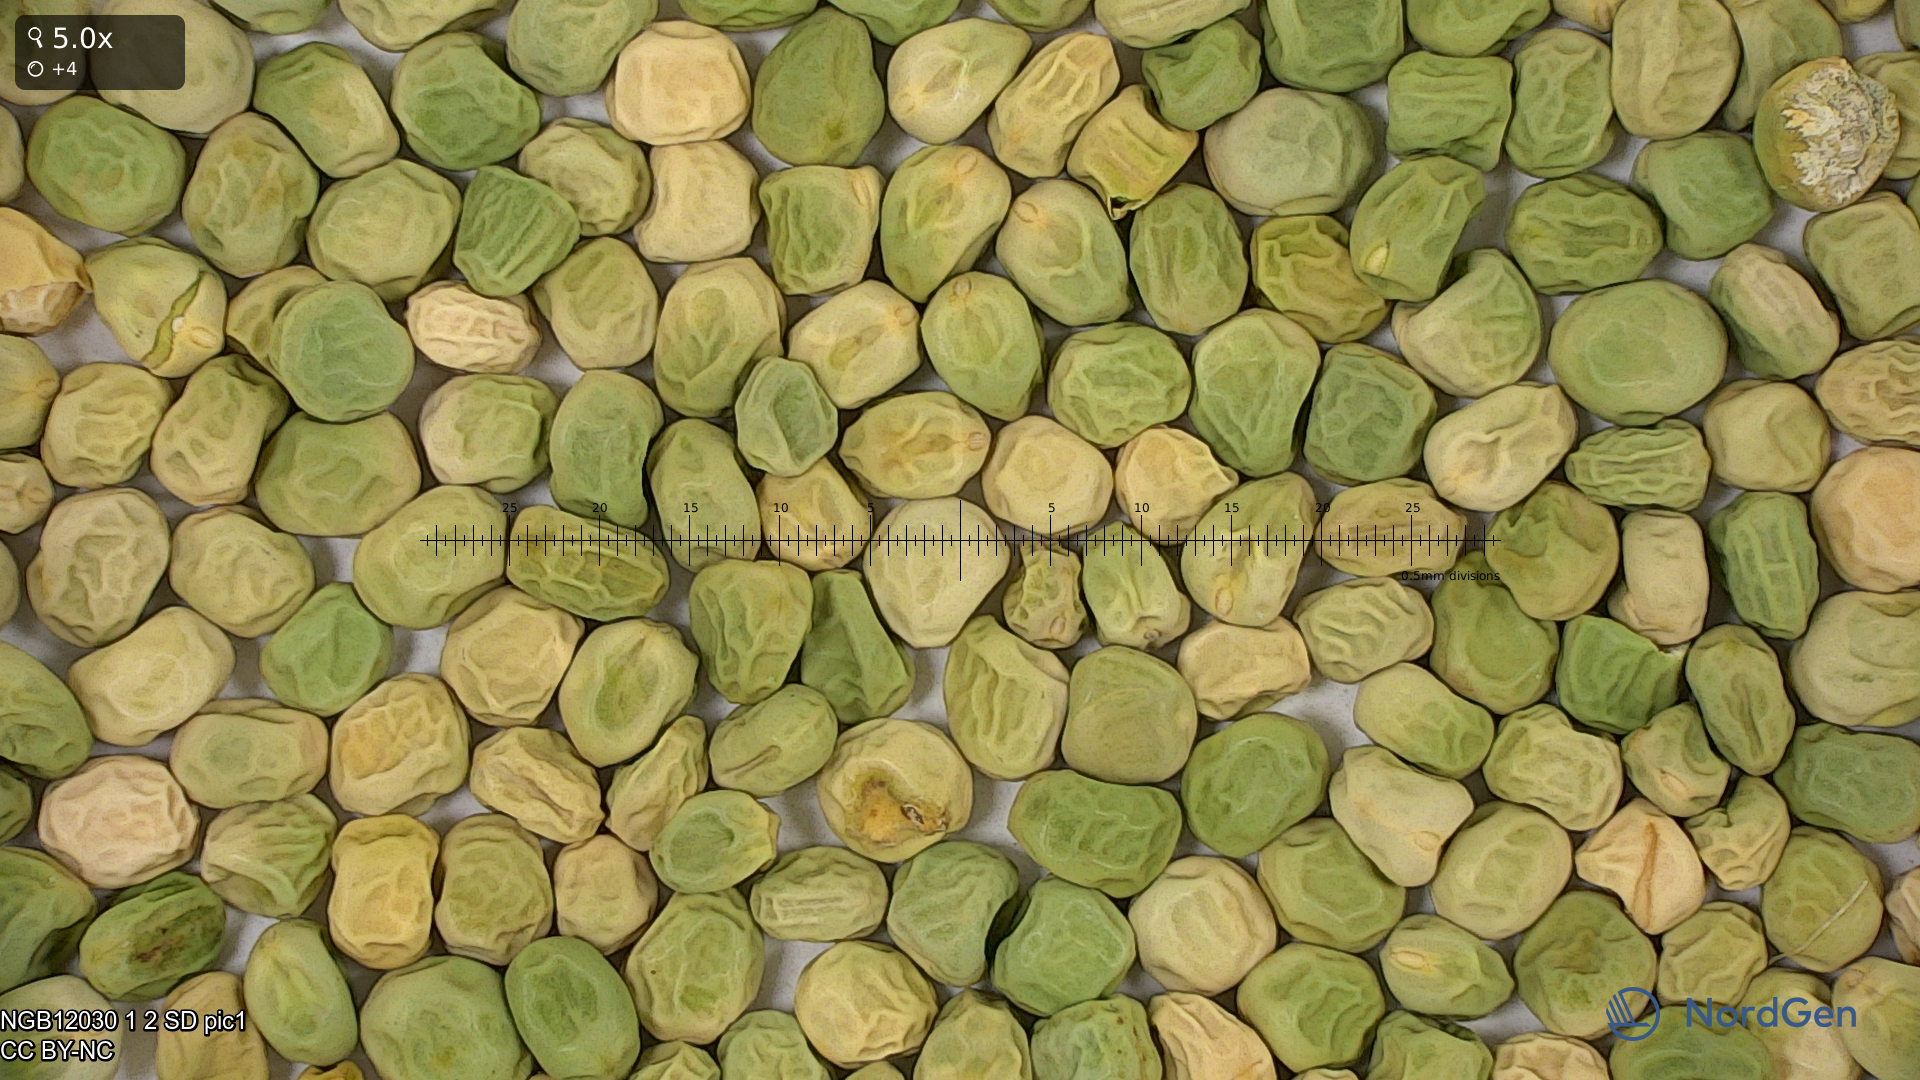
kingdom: Plantae
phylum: Tracheophyta
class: Magnoliopsida
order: Fabales
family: Fabaceae
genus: Lathyrus
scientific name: Lathyrus oleraceus
